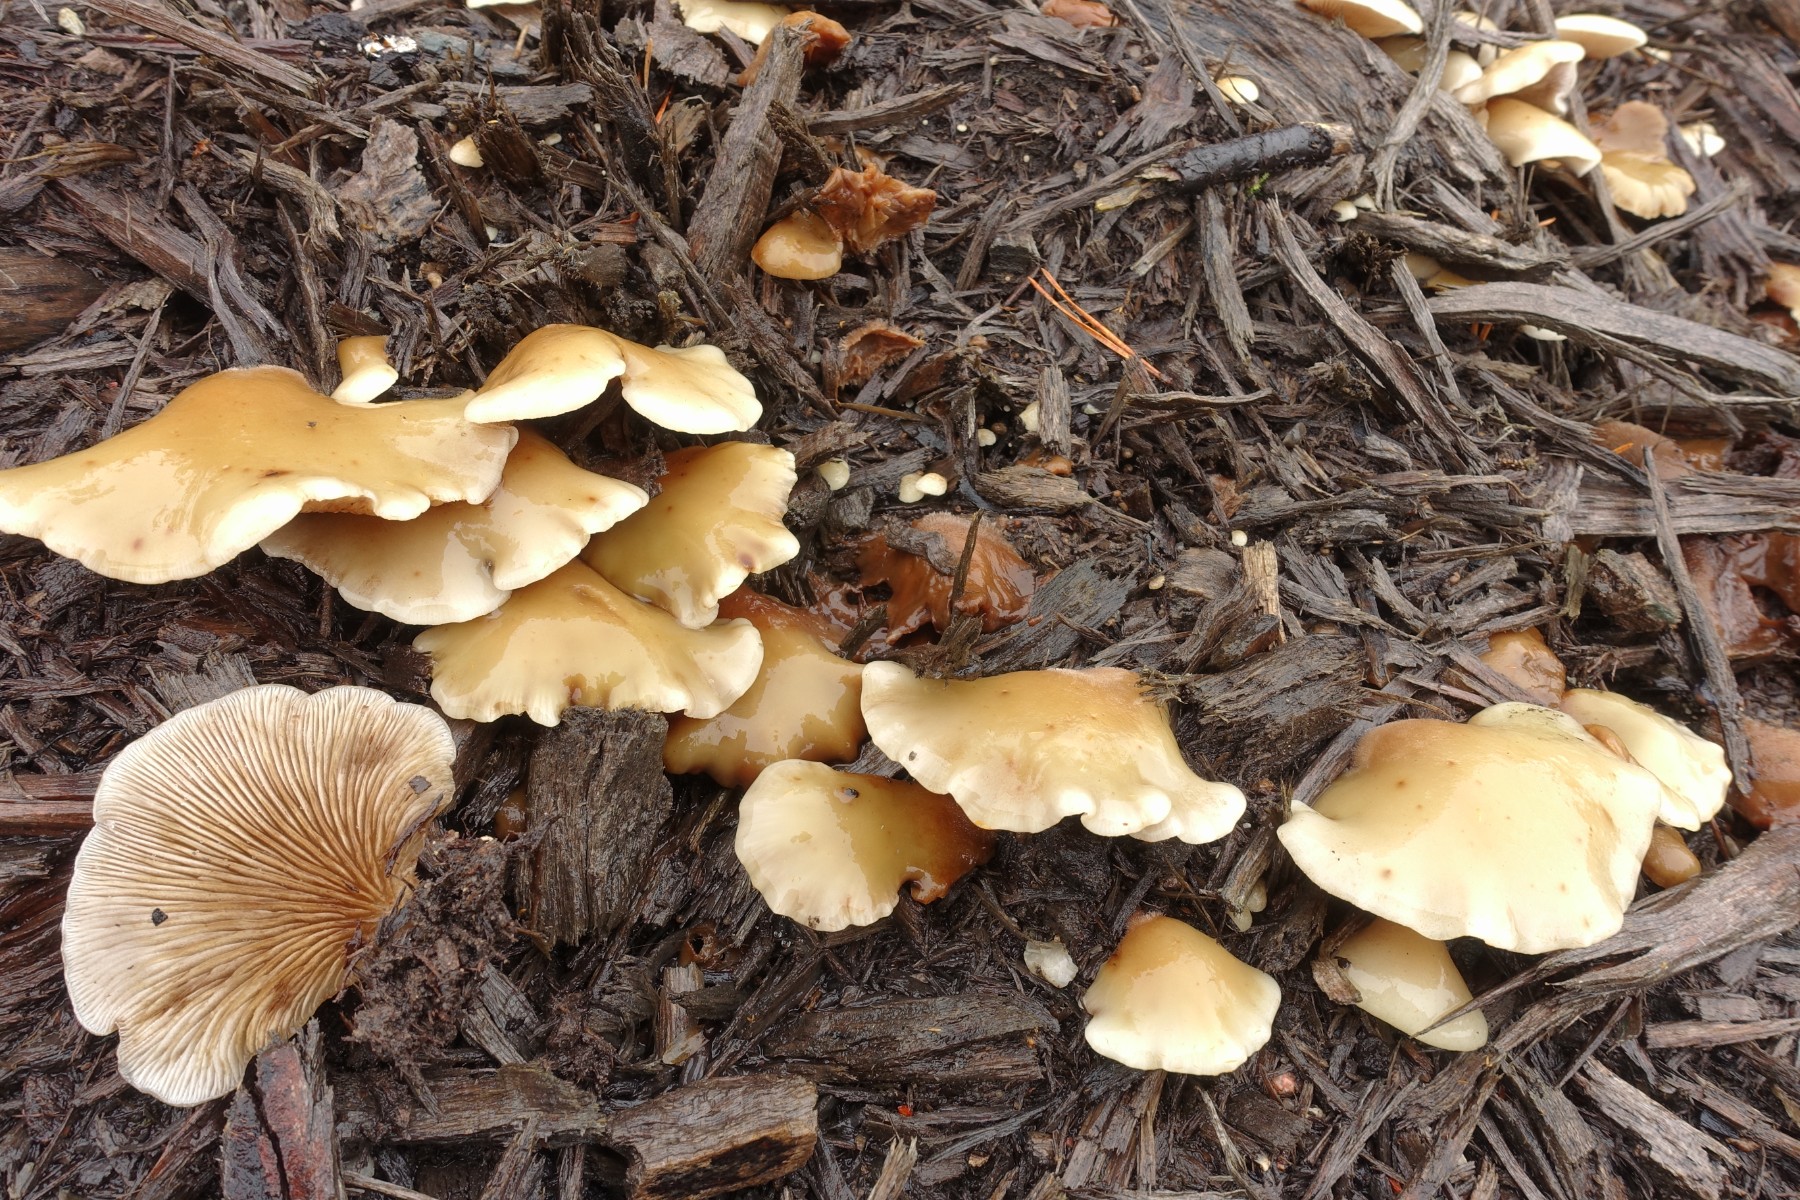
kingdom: Fungi
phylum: Basidiomycota
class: Agaricomycetes
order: Agaricales
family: Crepidotaceae
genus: Crepidotus
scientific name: Crepidotus mollis
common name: blød muslingesvamp
